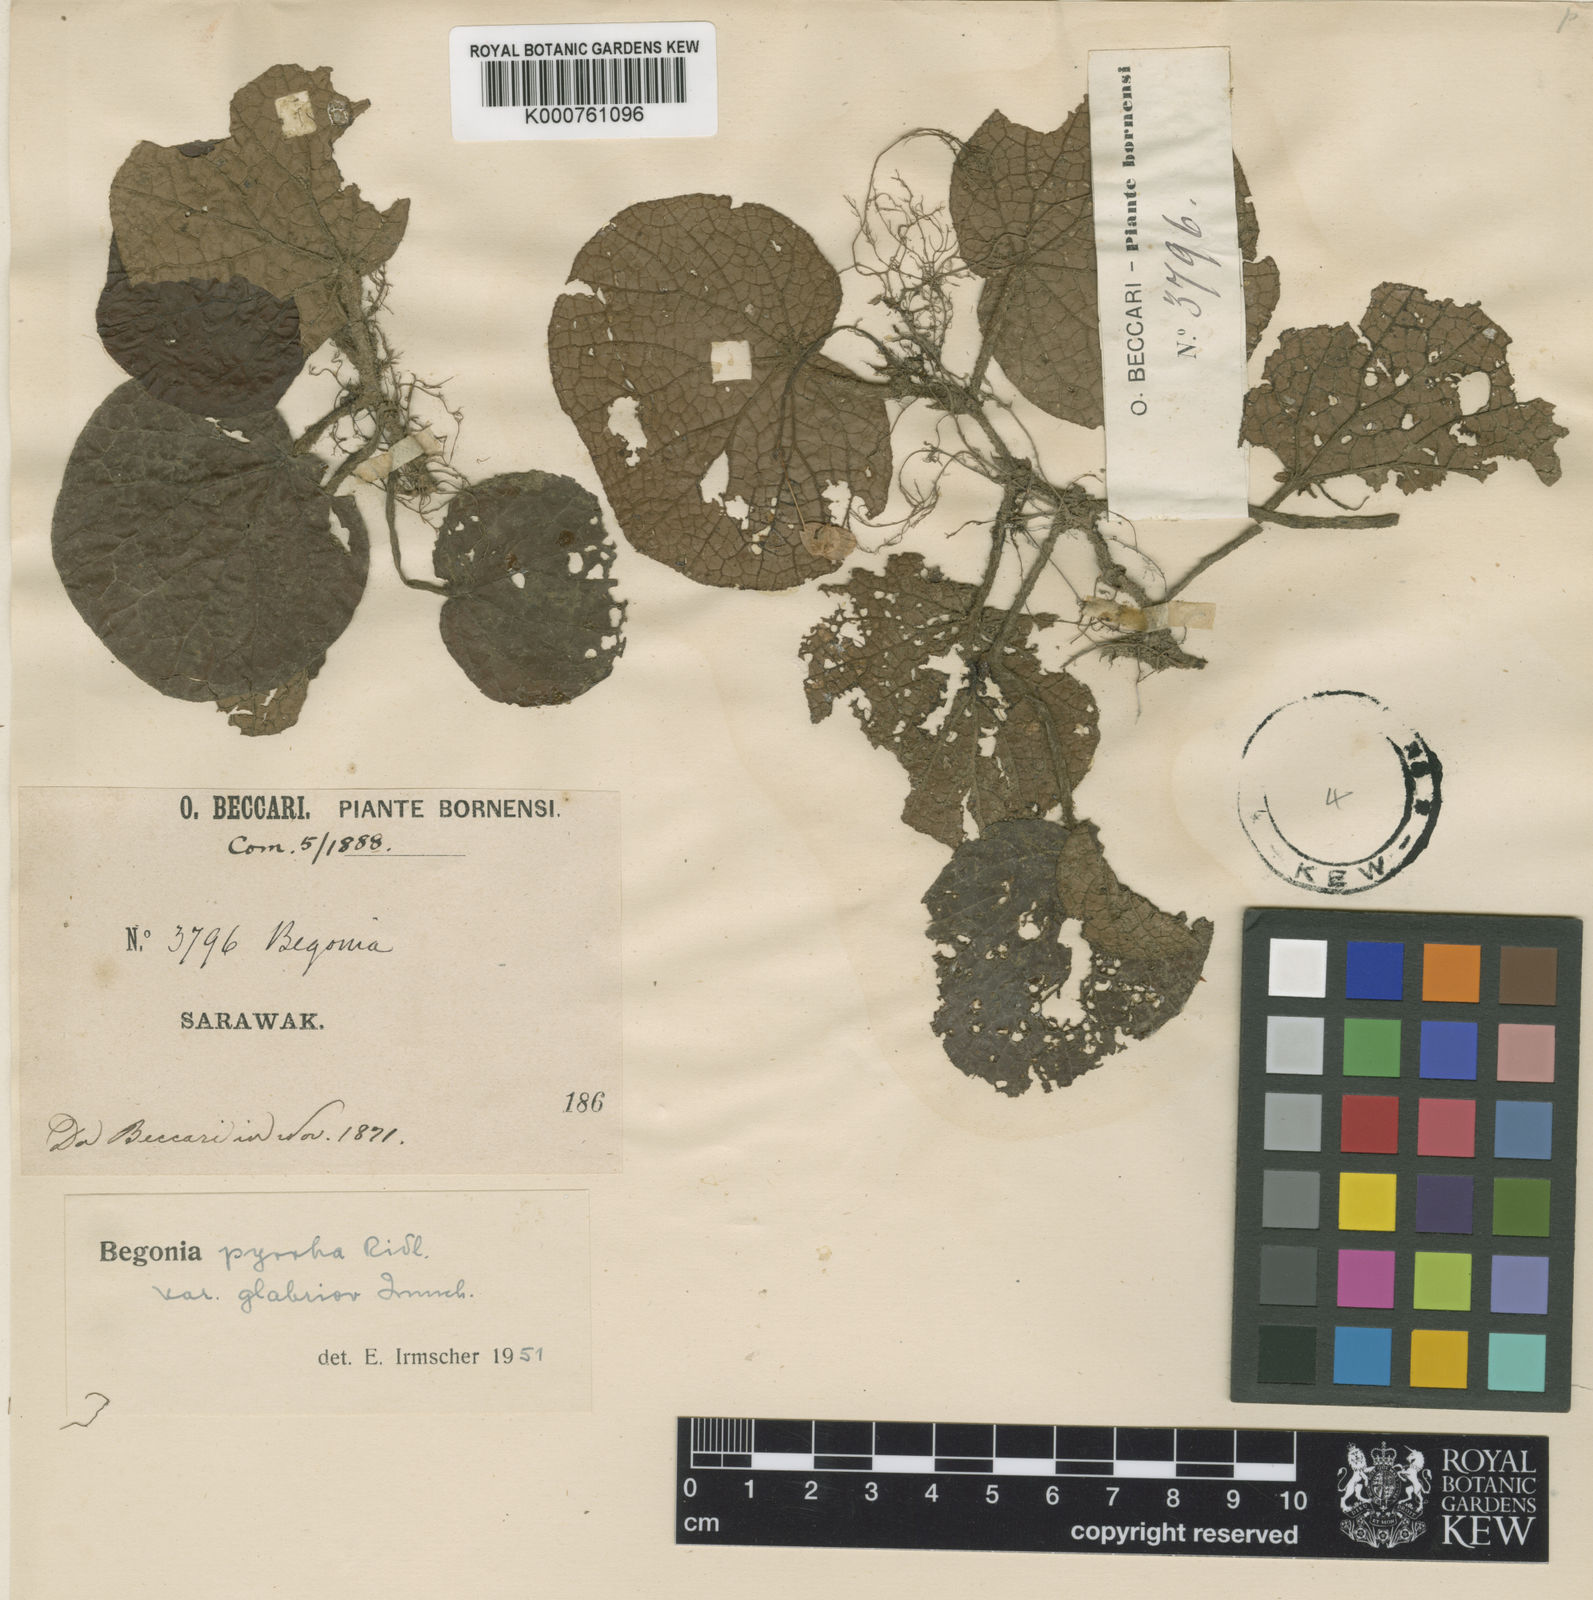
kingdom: Plantae
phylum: Tracheophyta
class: Magnoliopsida
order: Cucurbitales
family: Begoniaceae
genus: Begonia
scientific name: Begonia pyrrha
